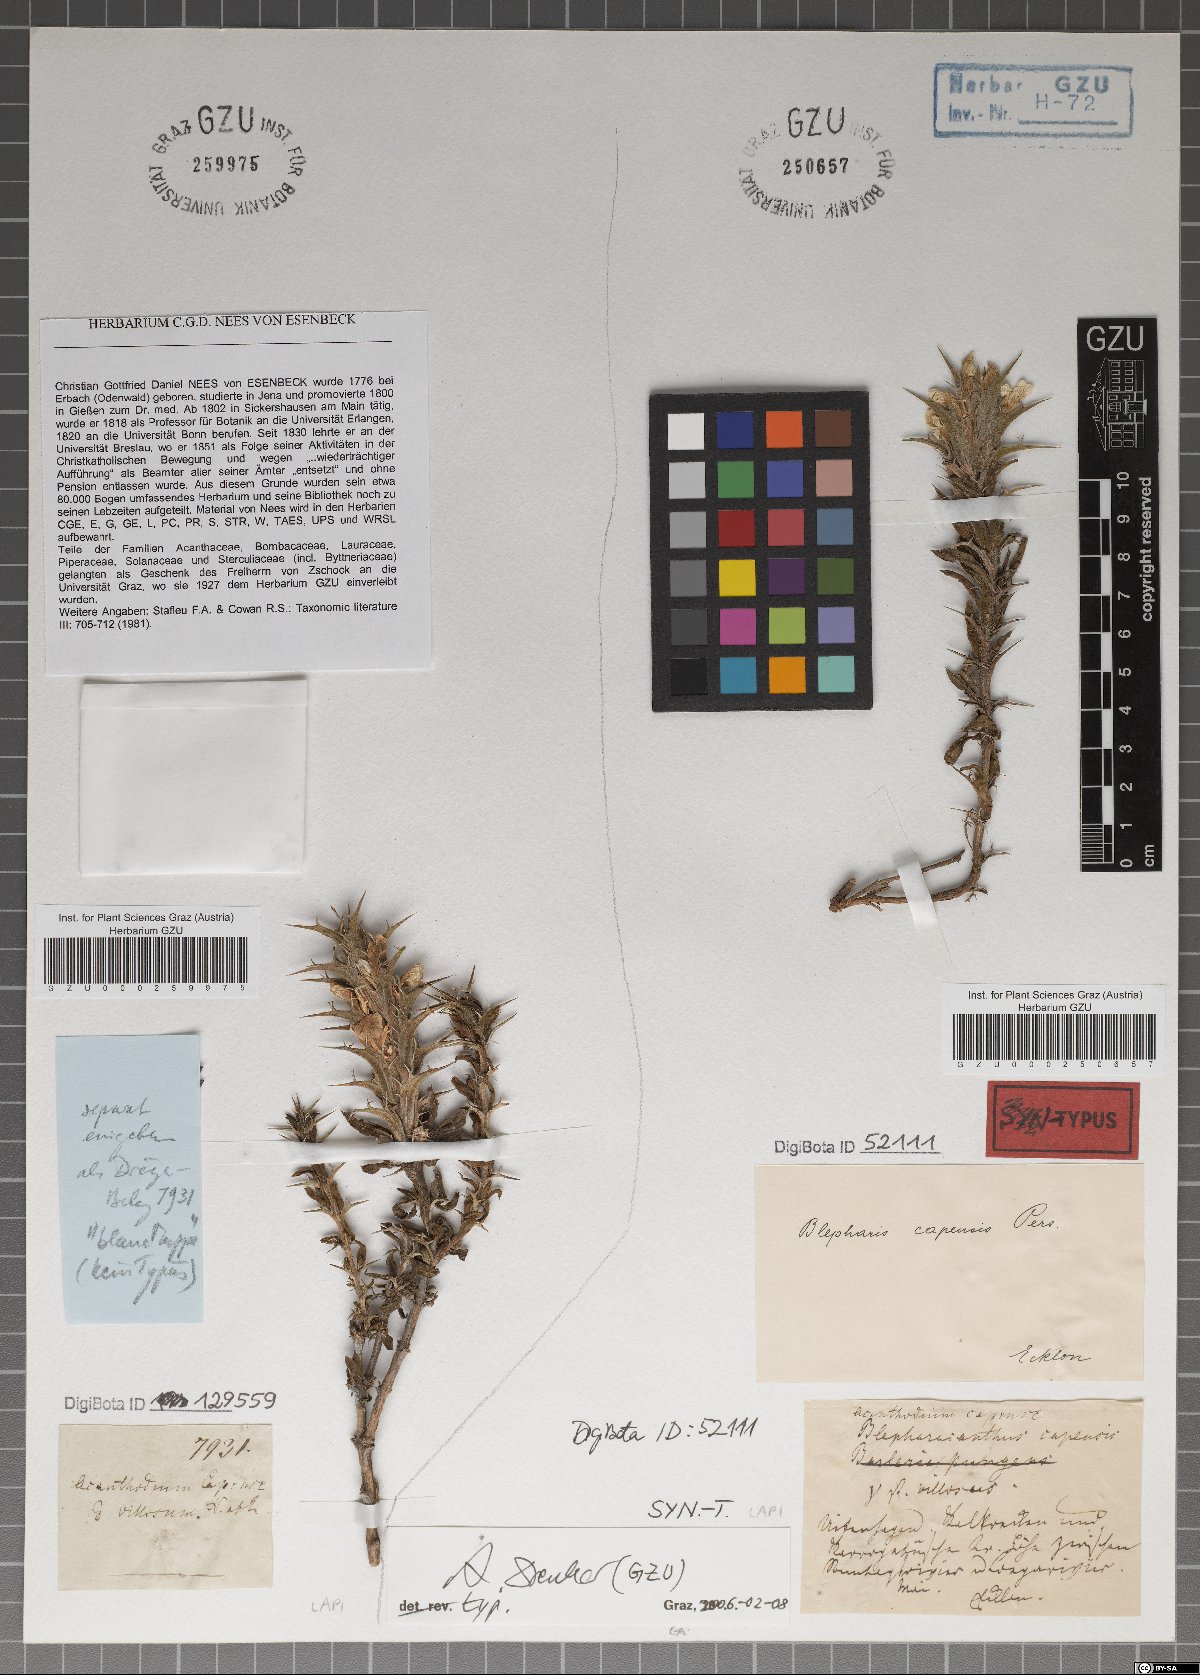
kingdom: Plantae
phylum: Tracheophyta
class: Magnoliopsida
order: Lamiales
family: Acanthaceae
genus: Blepharis
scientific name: Blepharis mitrata
